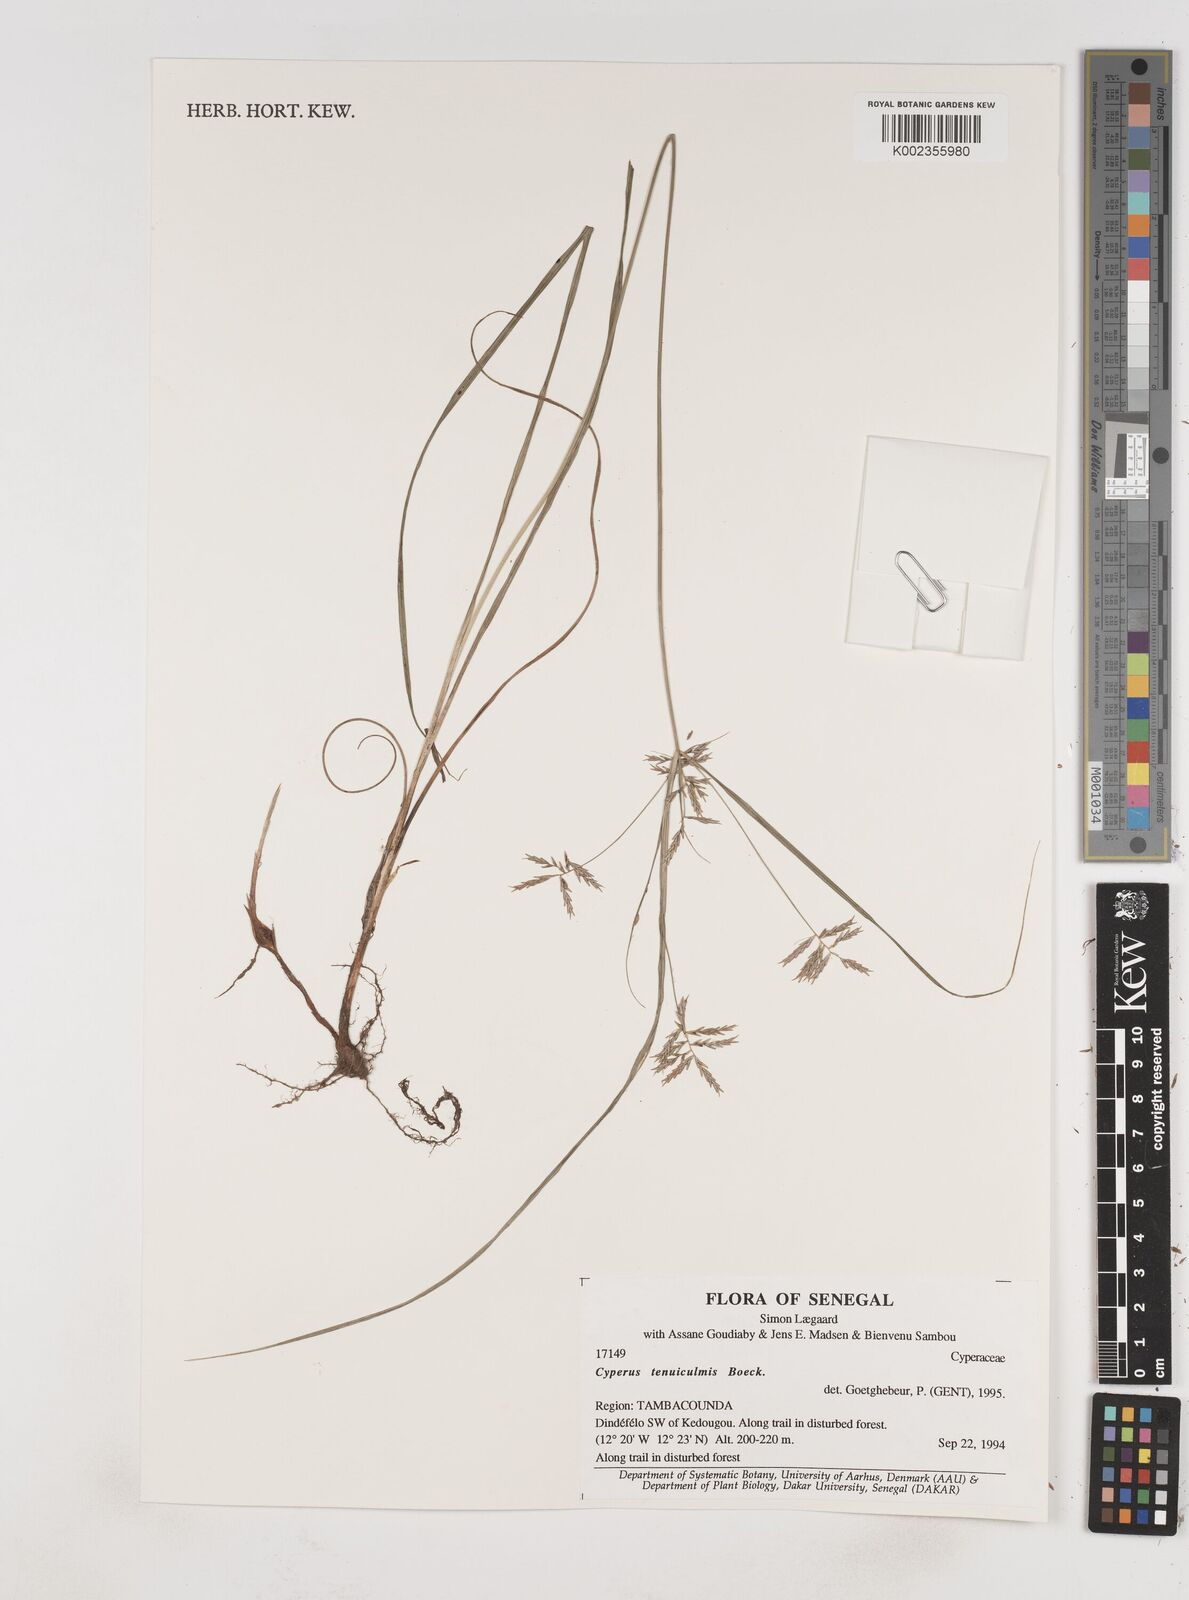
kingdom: Plantae
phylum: Tracheophyta
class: Liliopsida
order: Poales
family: Cyperaceae
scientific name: Cyperaceae
